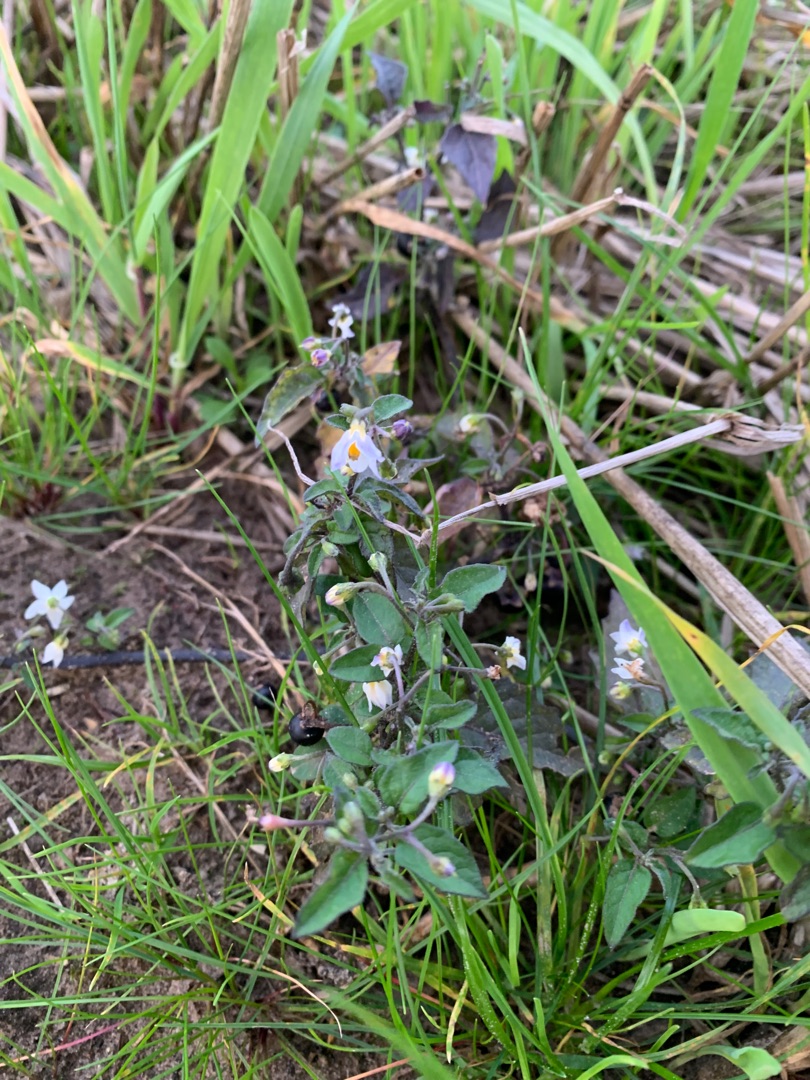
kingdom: Plantae
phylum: Tracheophyta
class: Magnoliopsida
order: Solanales
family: Solanaceae
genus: Solanum
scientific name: Solanum nigrum
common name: Sort natskygge
